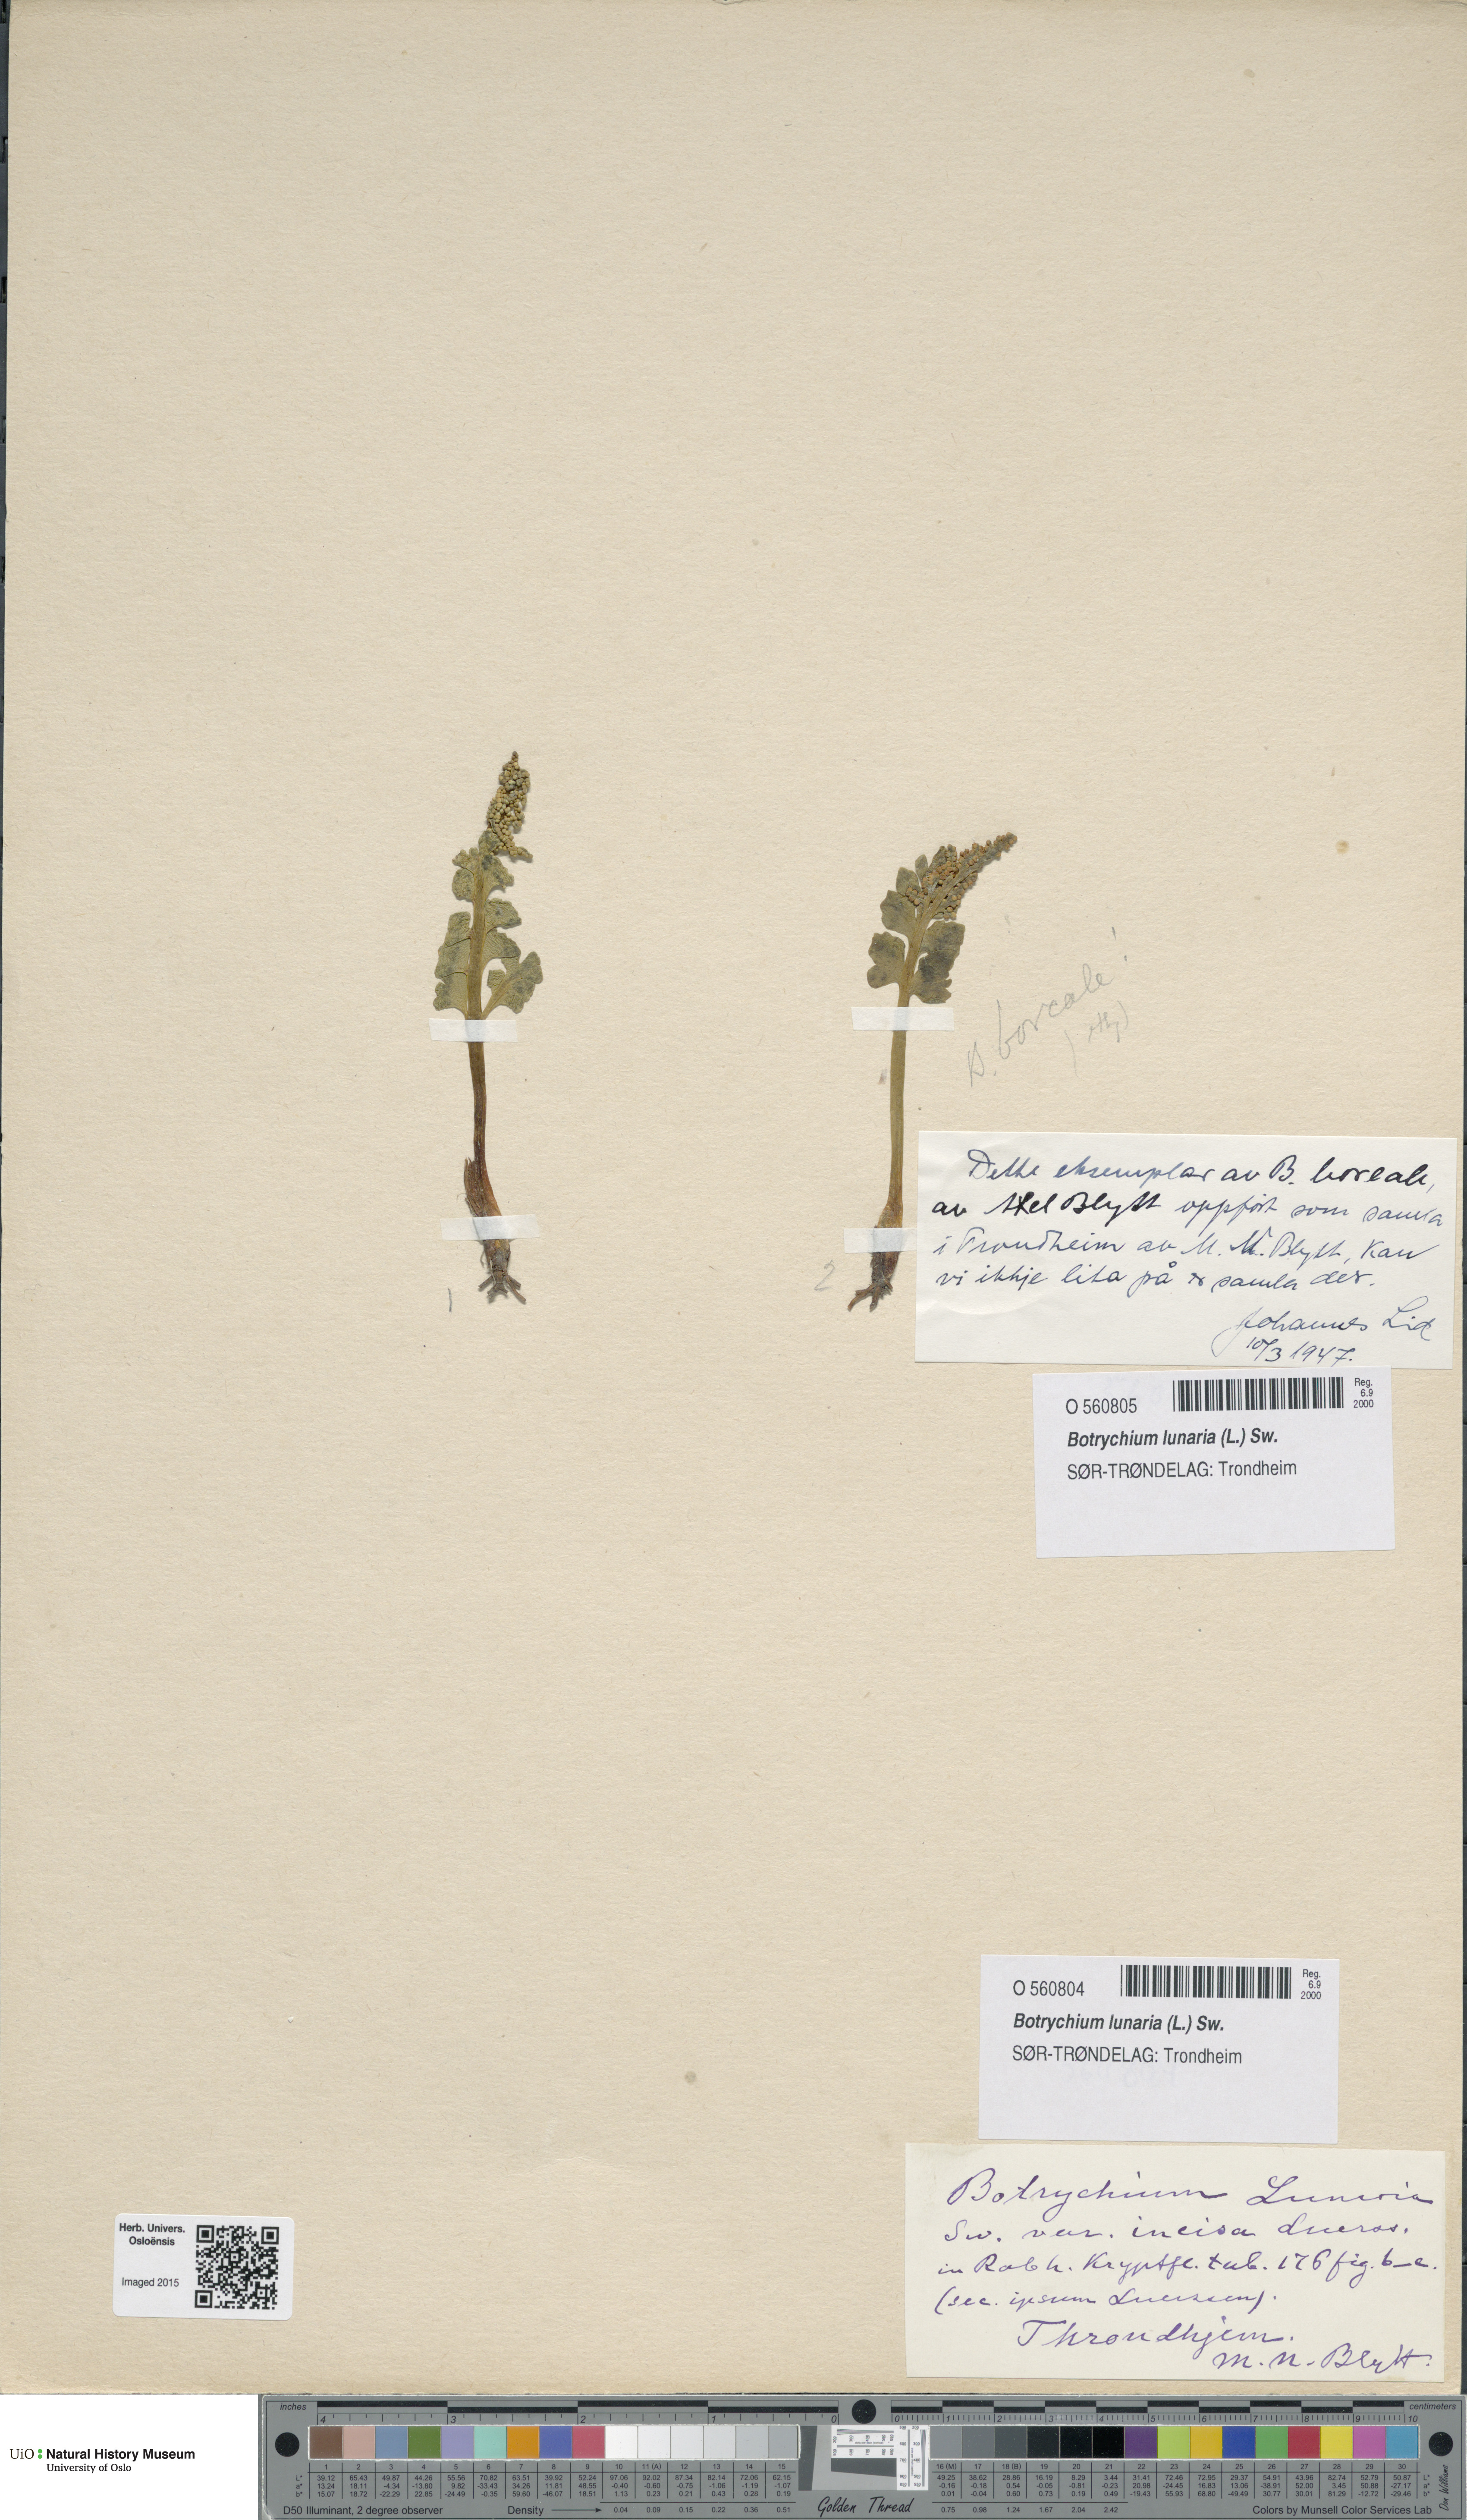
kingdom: Plantae
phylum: Tracheophyta
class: Polypodiopsida
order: Ophioglossales
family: Ophioglossaceae
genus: Botrychium
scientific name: Botrychium lunaria
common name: Moonwort
